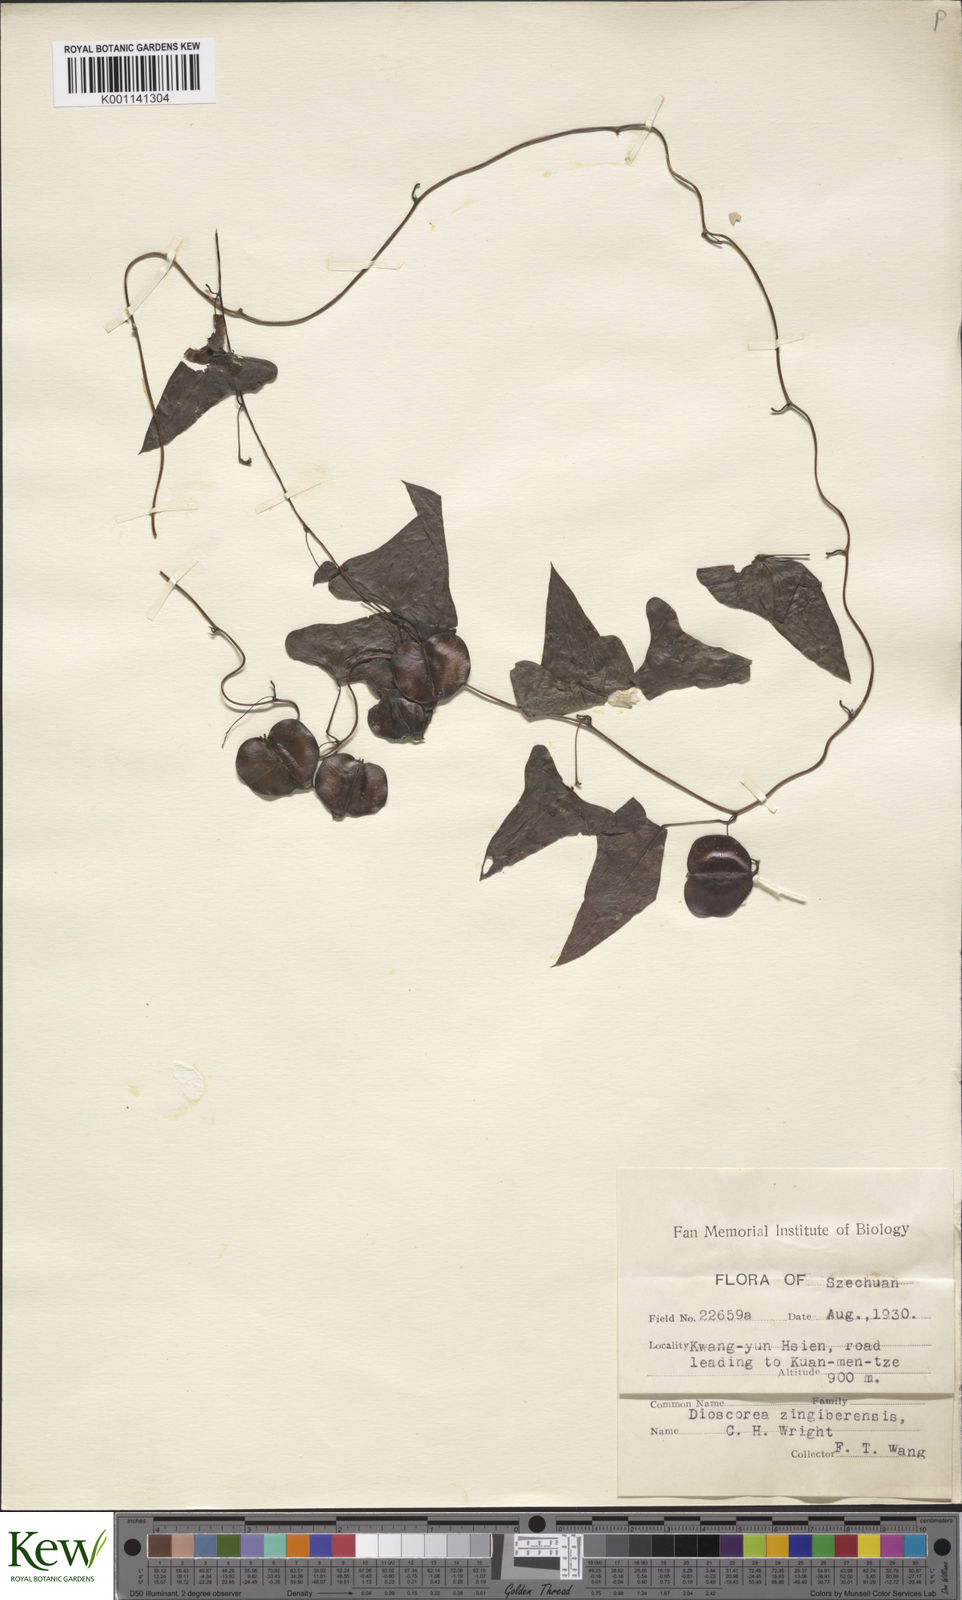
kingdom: Plantae
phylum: Tracheophyta
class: Liliopsida
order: Dioscoreales
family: Dioscoreaceae
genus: Dioscorea
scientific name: Dioscorea zingiberensis
